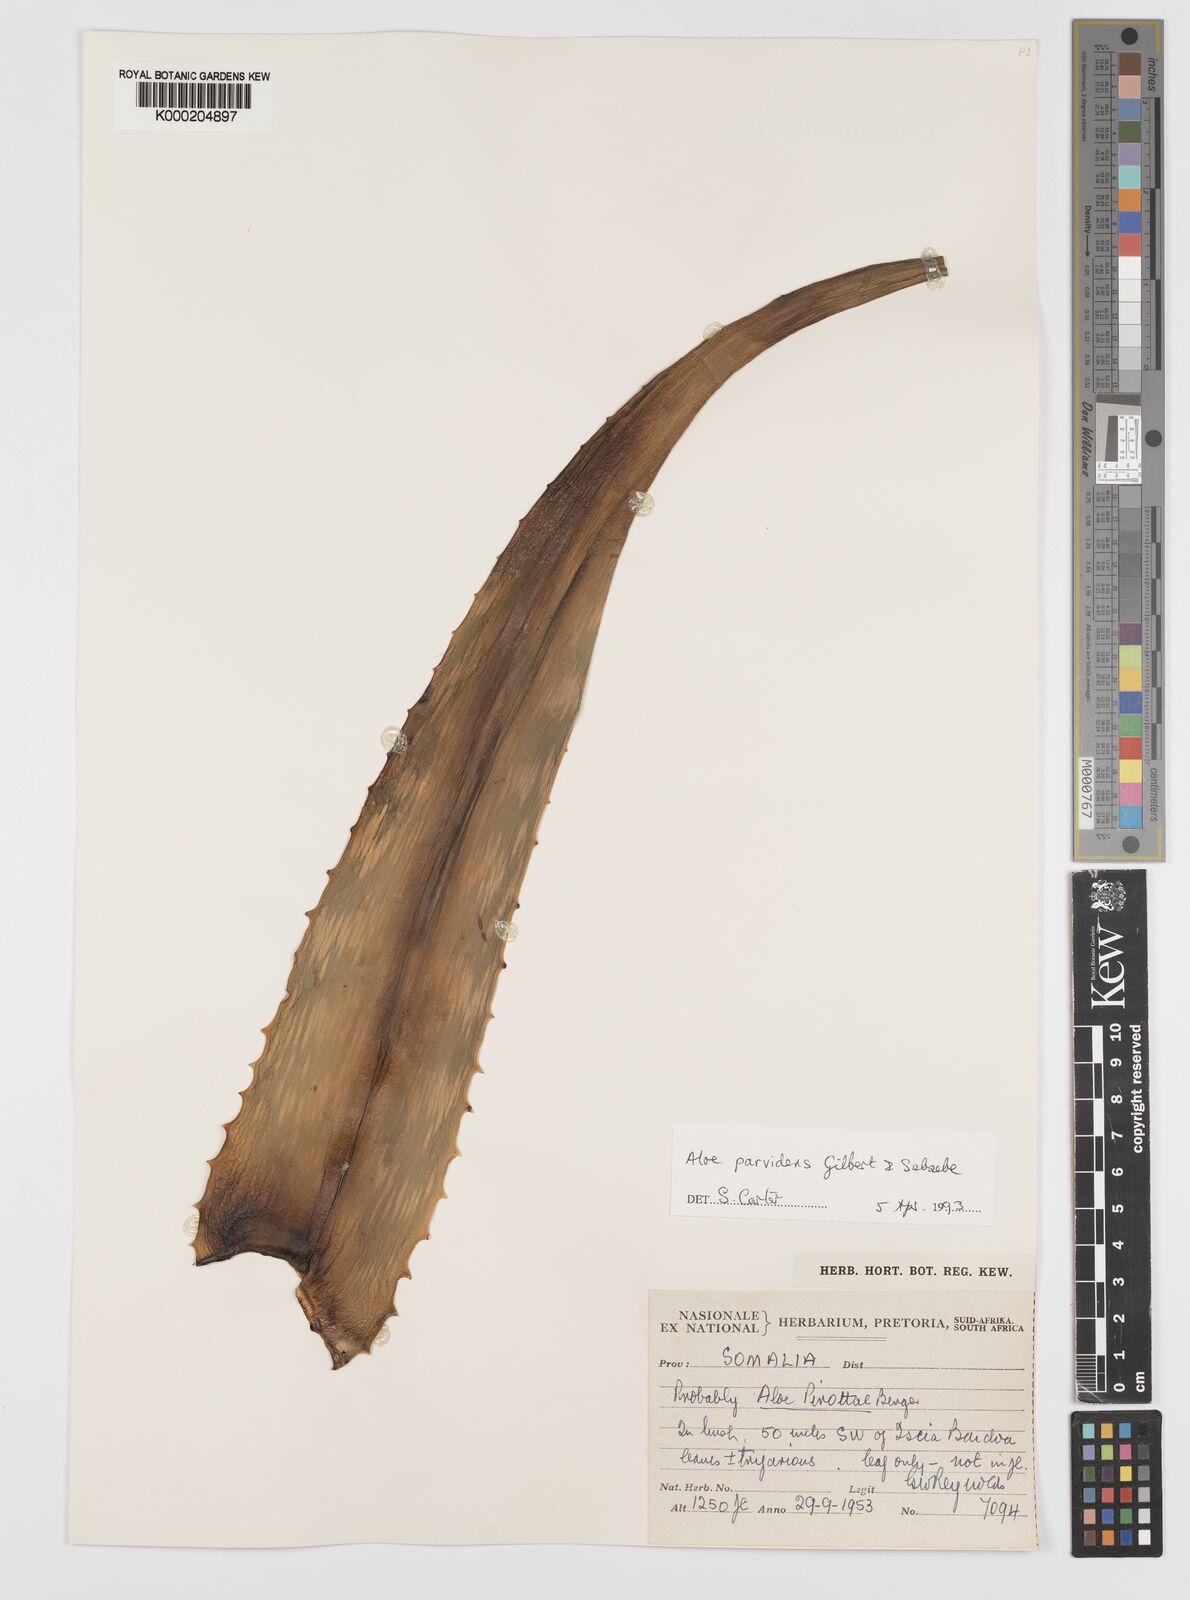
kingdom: Plantae
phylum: Tracheophyta
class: Liliopsida
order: Asparagales
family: Asphodelaceae
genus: Aloe
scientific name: Aloe parvidens
